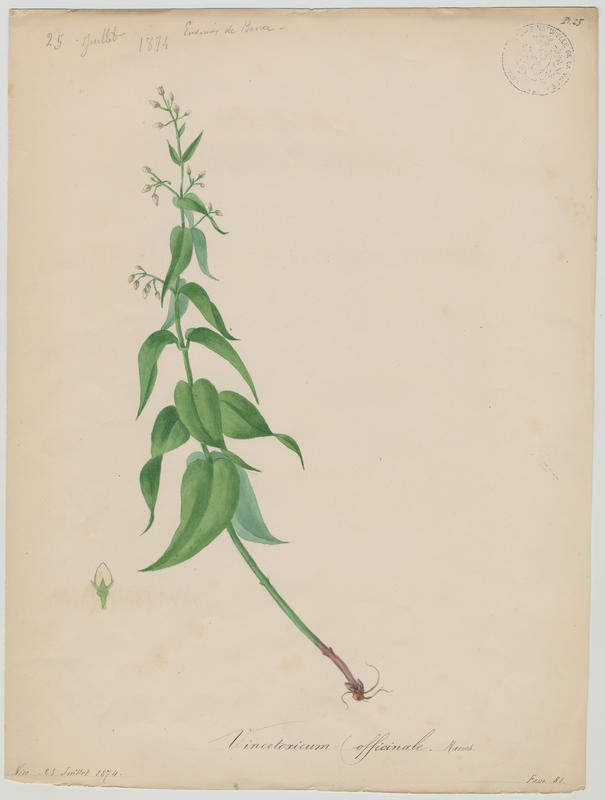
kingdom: Plantae
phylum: Tracheophyta
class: Magnoliopsida
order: Gentianales
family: Apocynaceae
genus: Vincetoxicum
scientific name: Vincetoxicum hirundinaria
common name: White swallowwort
